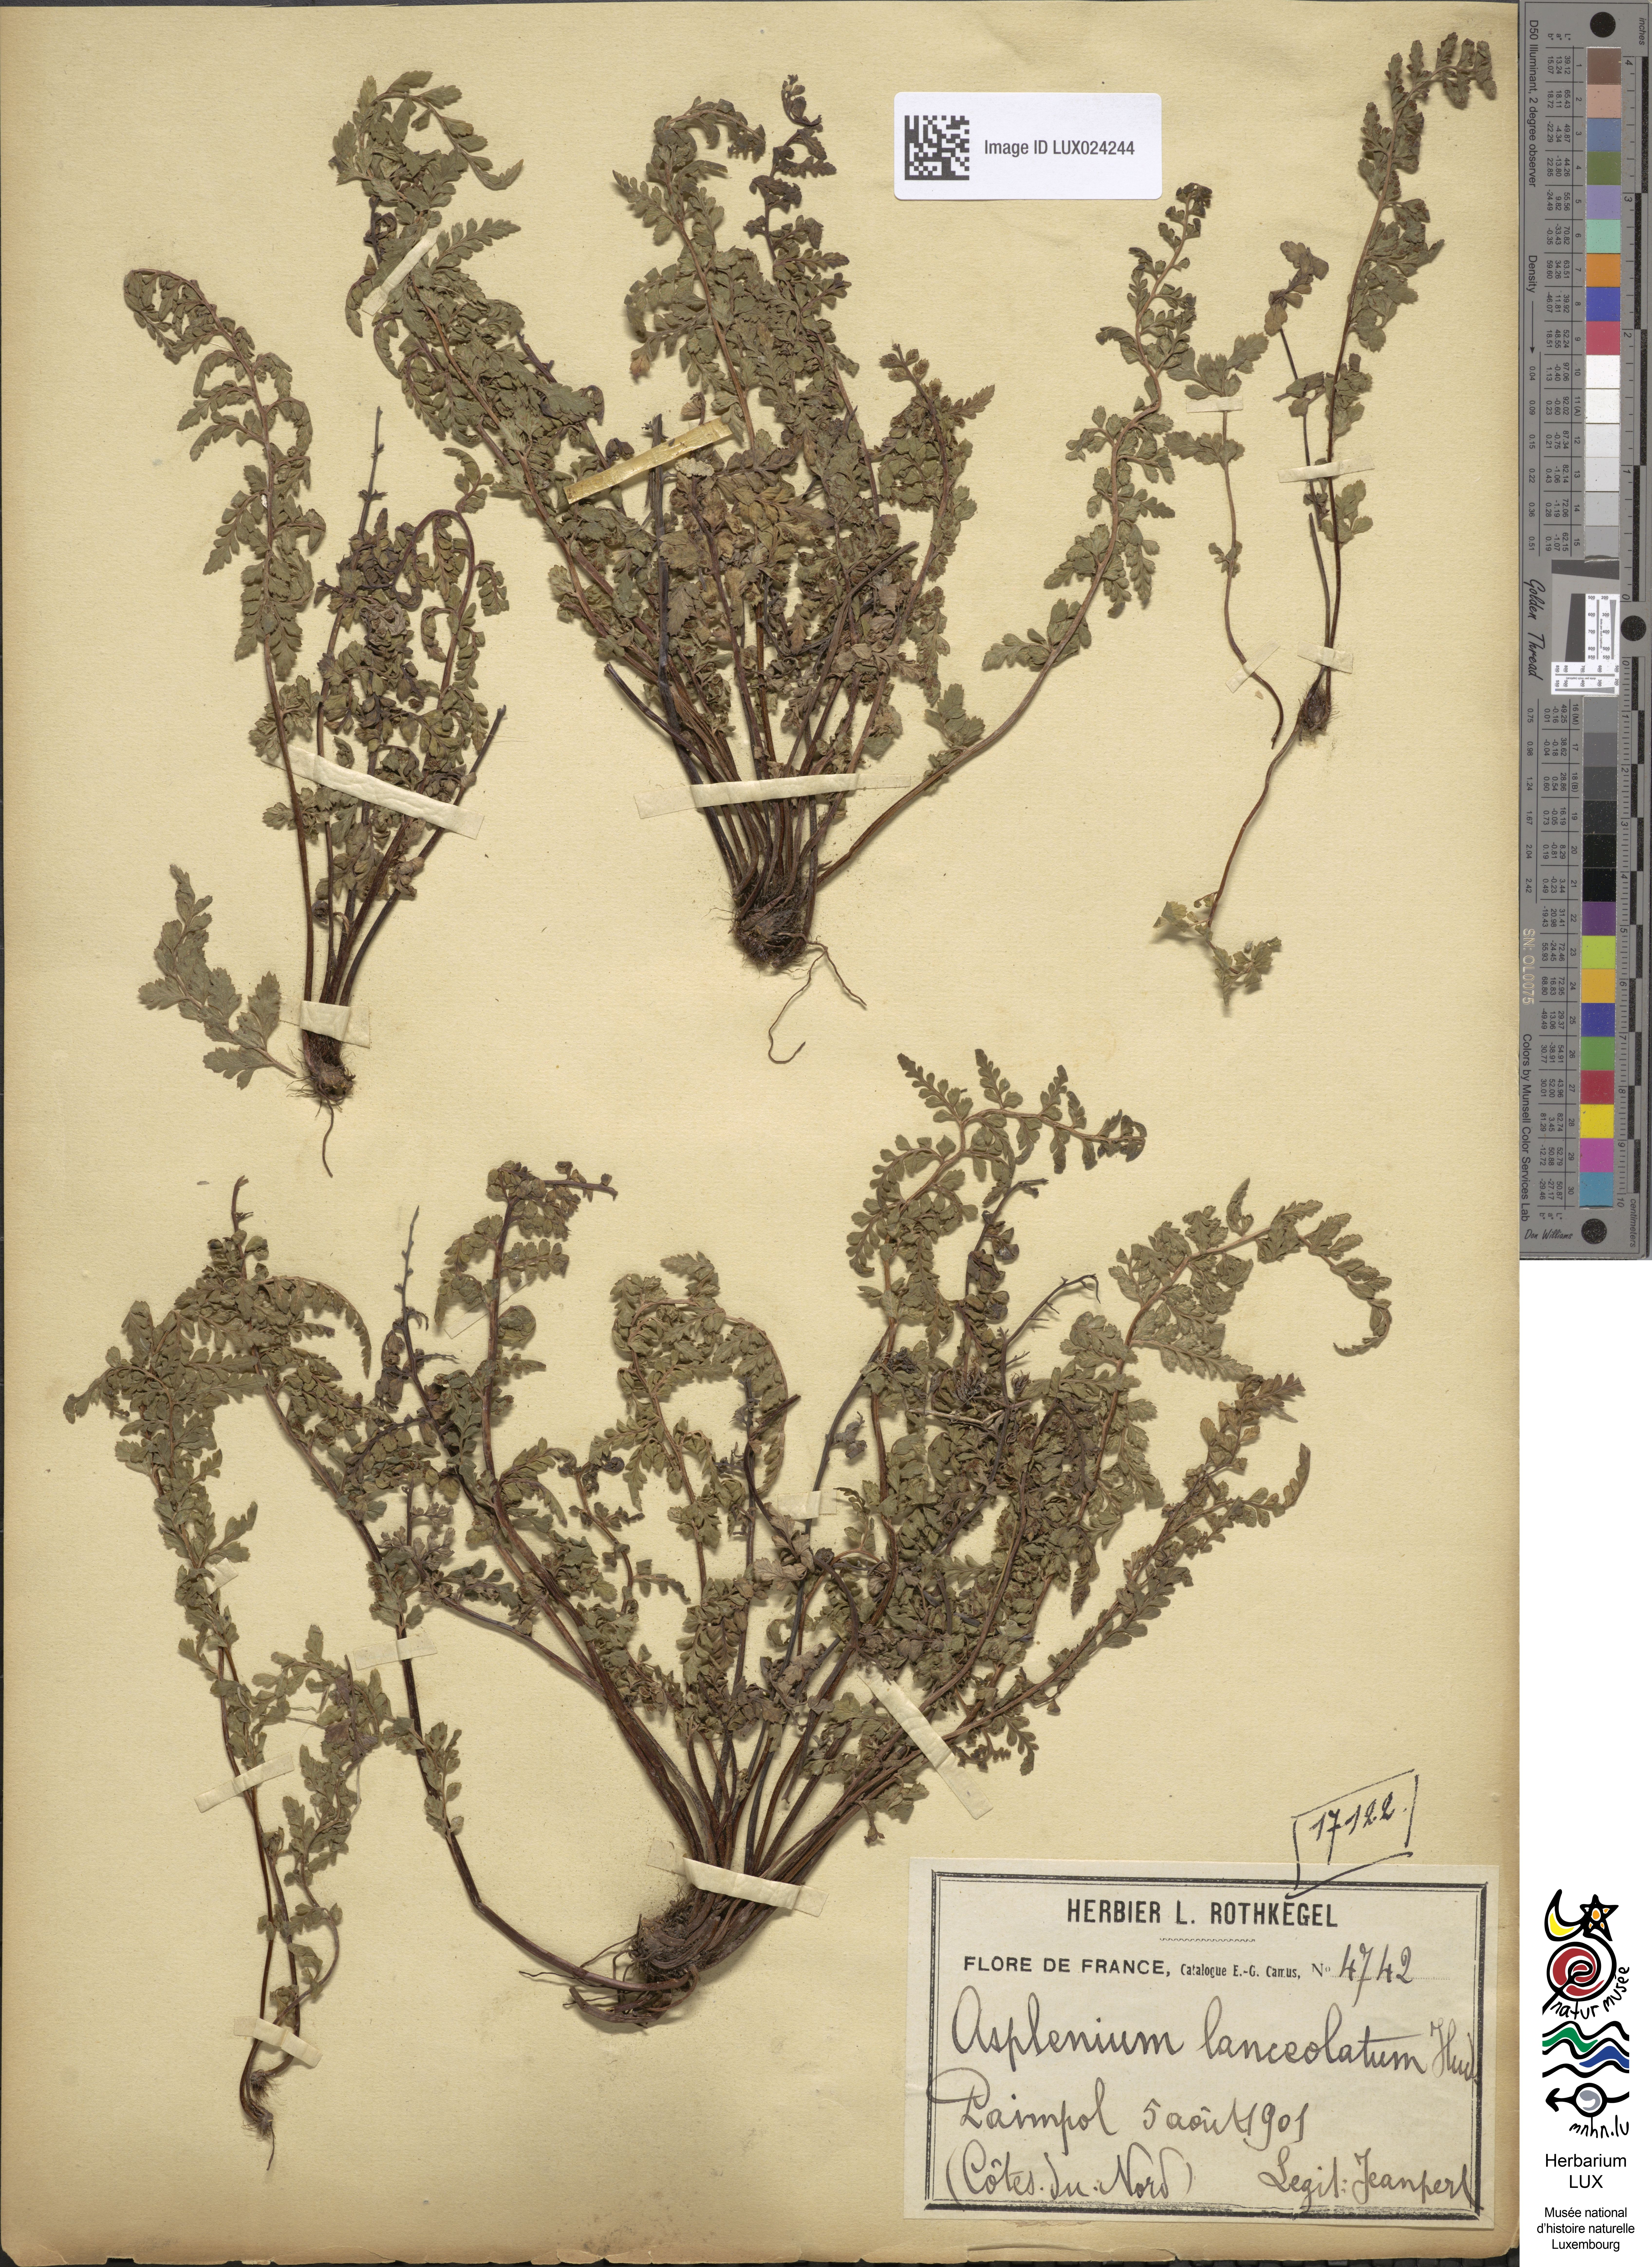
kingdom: Plantae
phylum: Tracheophyta
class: Polypodiopsida
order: Polypodiales
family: Aspleniaceae
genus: Asplenium
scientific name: Asplenium obovatum
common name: Lanceolate spleenwort
